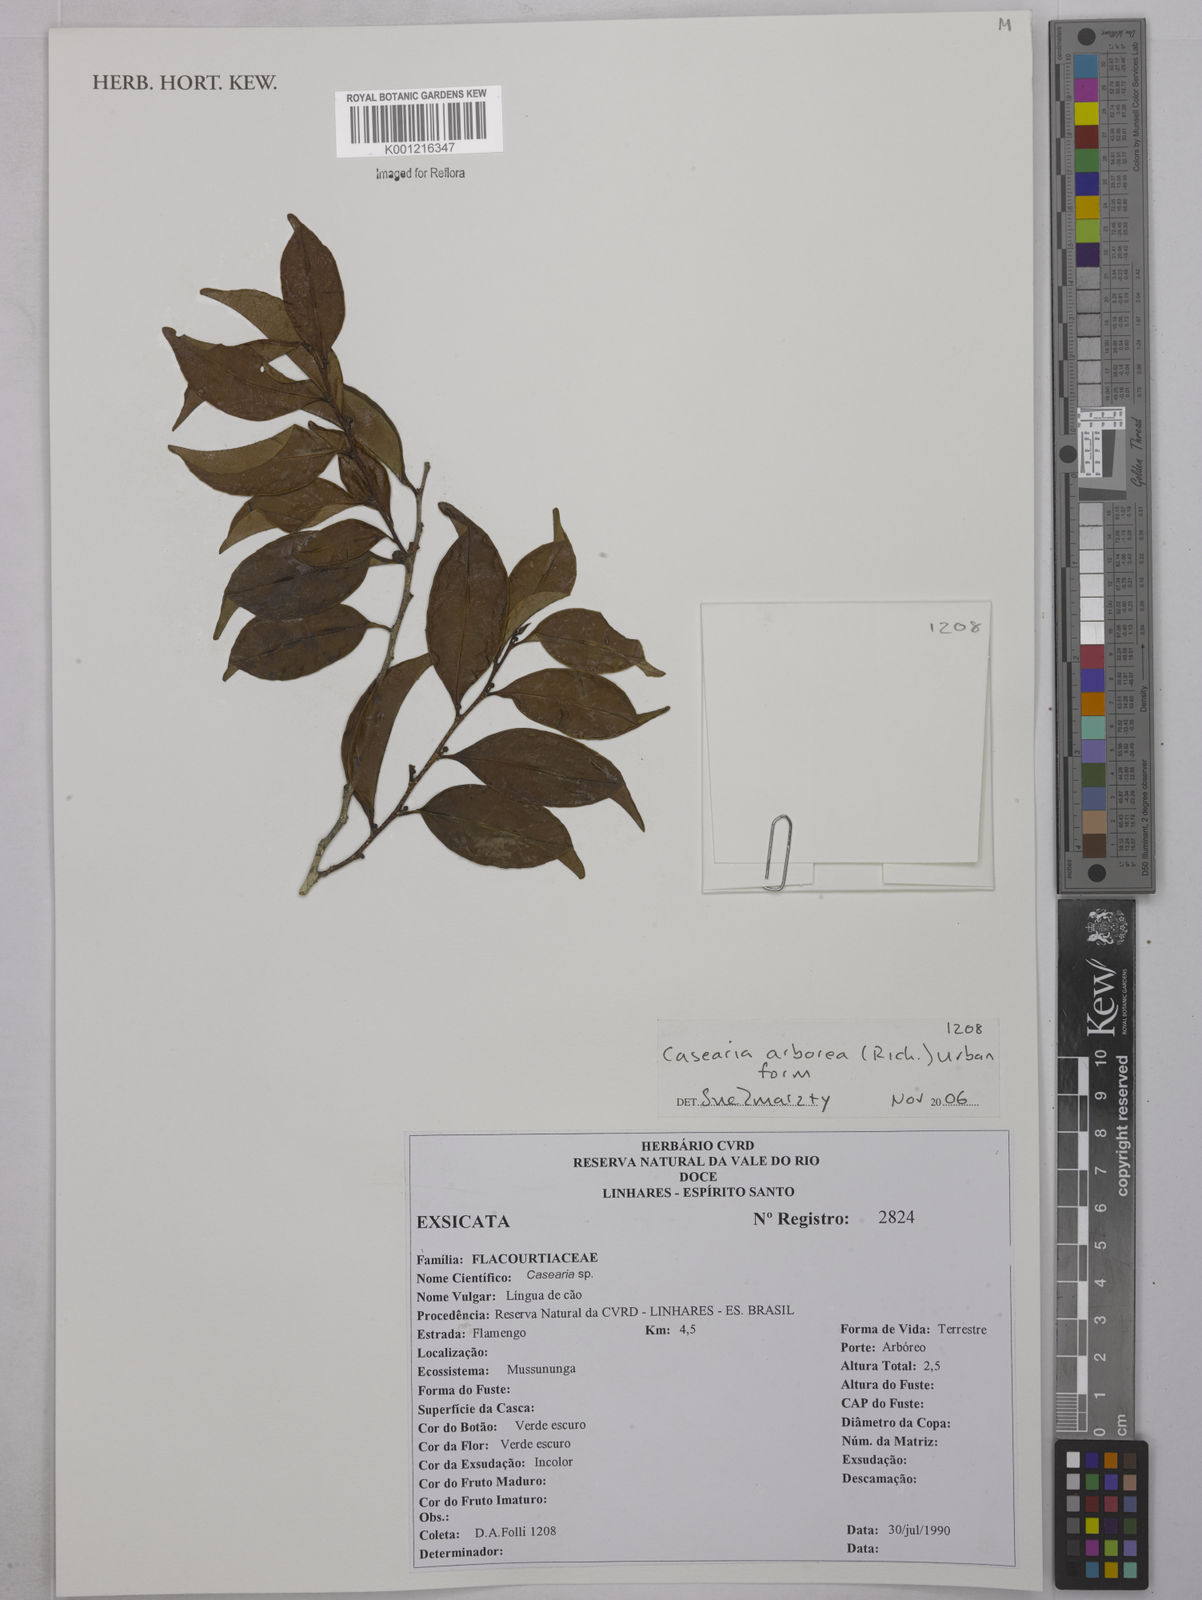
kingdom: Plantae
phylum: Tracheophyta
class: Magnoliopsida
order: Malpighiales
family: Salicaceae
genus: Casearia
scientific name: Casearia arborea
